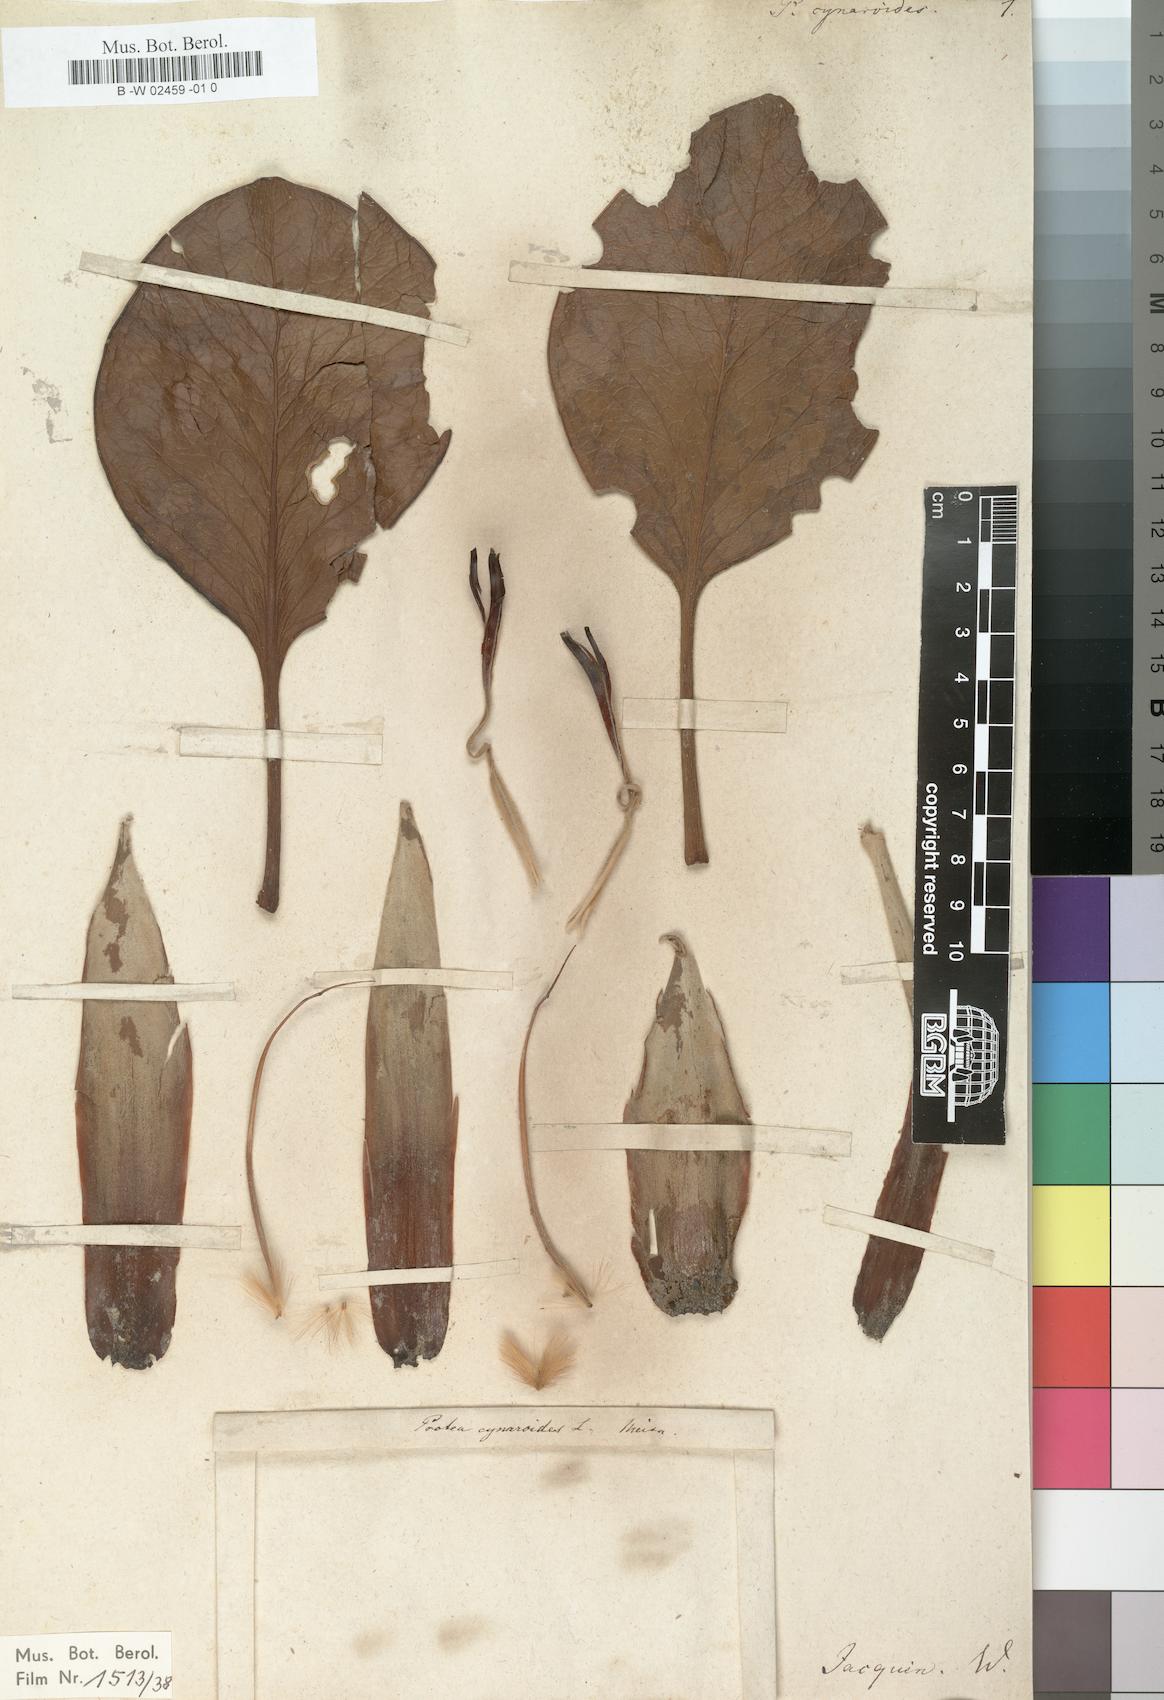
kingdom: Plantae
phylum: Tracheophyta
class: Magnoliopsida
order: Proteales
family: Proteaceae
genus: Protea
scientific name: Protea cynaroides
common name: King protea
